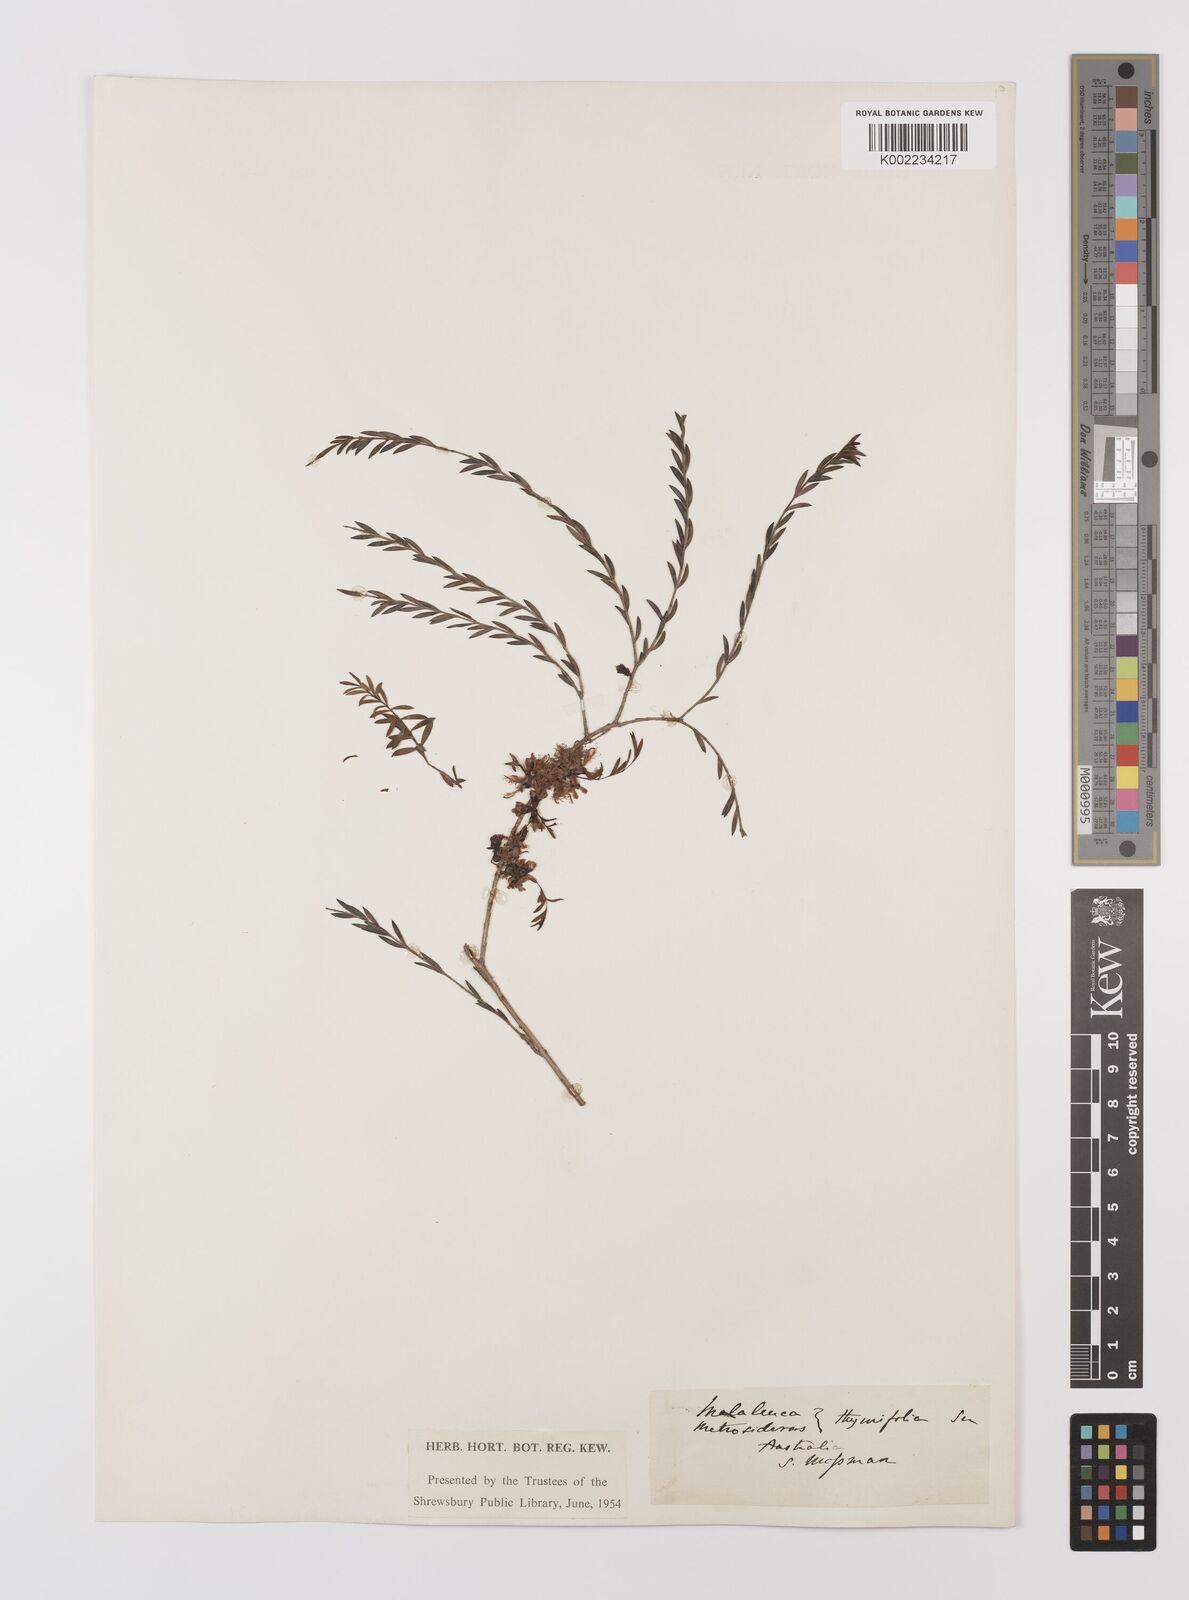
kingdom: Plantae
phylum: Tracheophyta
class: Magnoliopsida
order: Myrtales
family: Myrtaceae
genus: Melaleuca
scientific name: Melaleuca thymifolia
